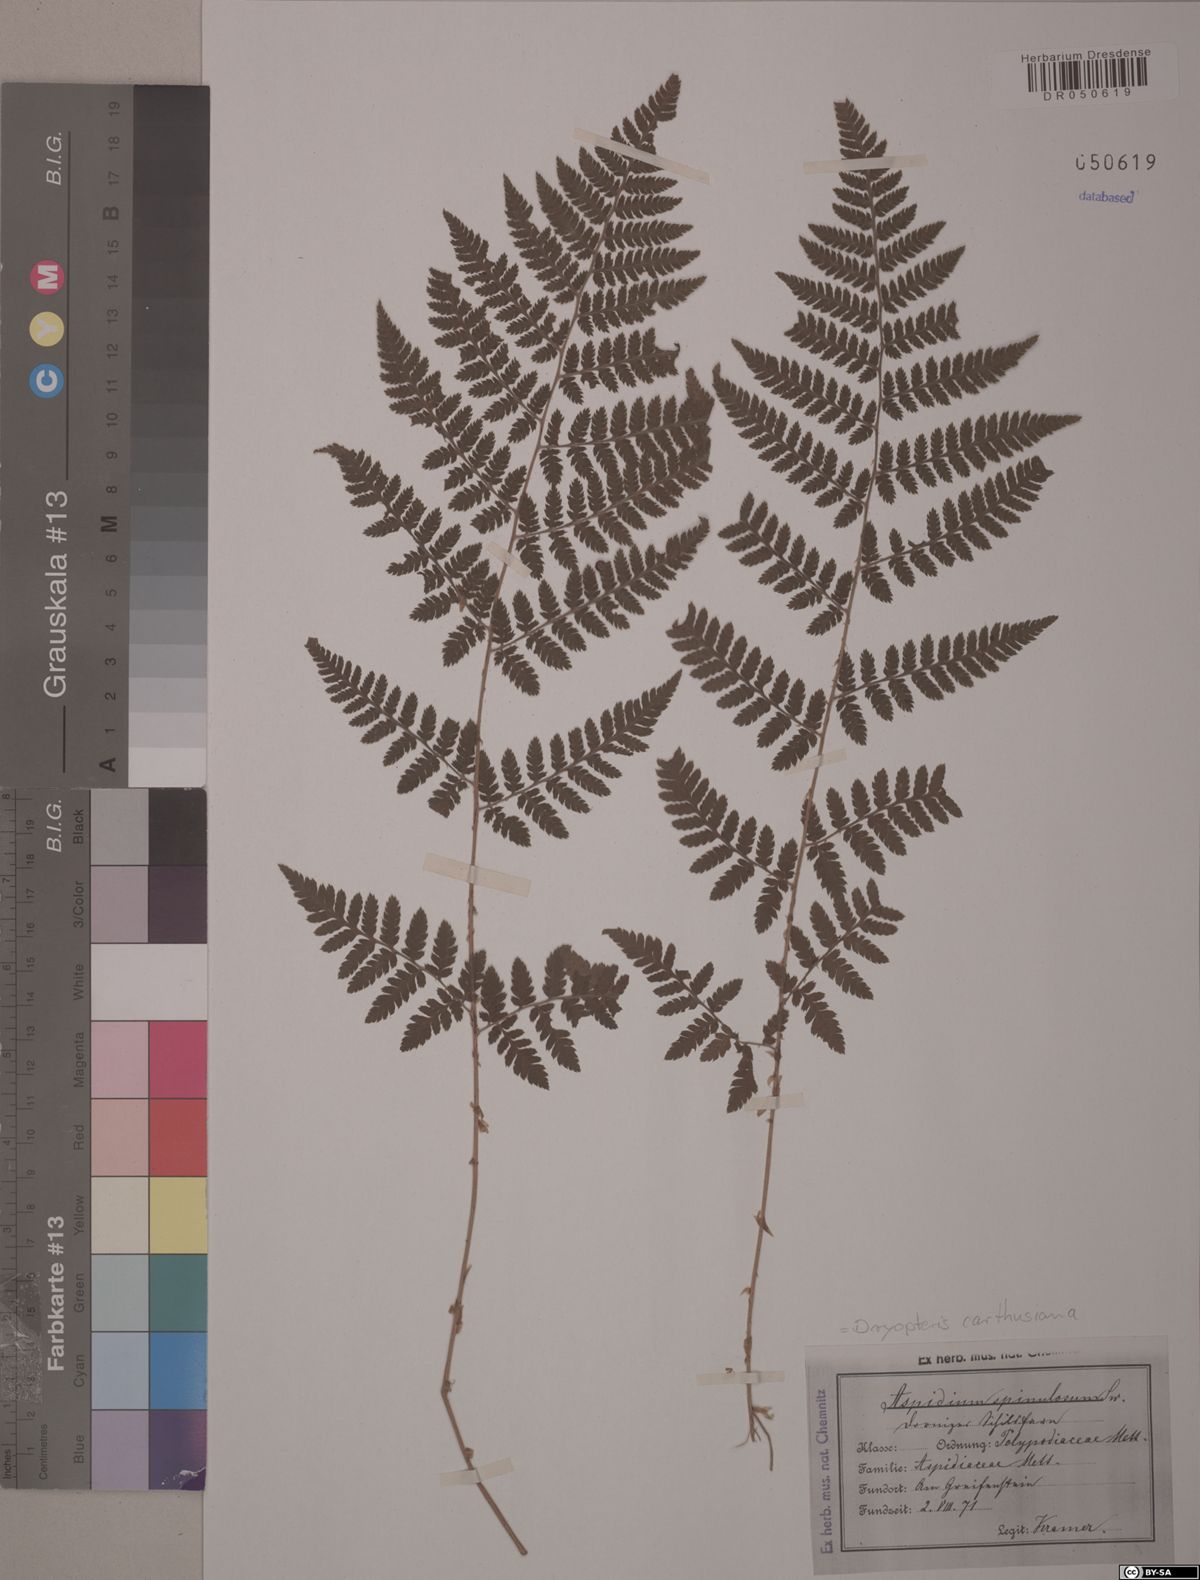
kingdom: Plantae
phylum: Tracheophyta
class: Polypodiopsida
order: Polypodiales
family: Dryopteridaceae
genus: Dryopteris
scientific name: Dryopteris carthusiana
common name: Narrow buckler-fern
